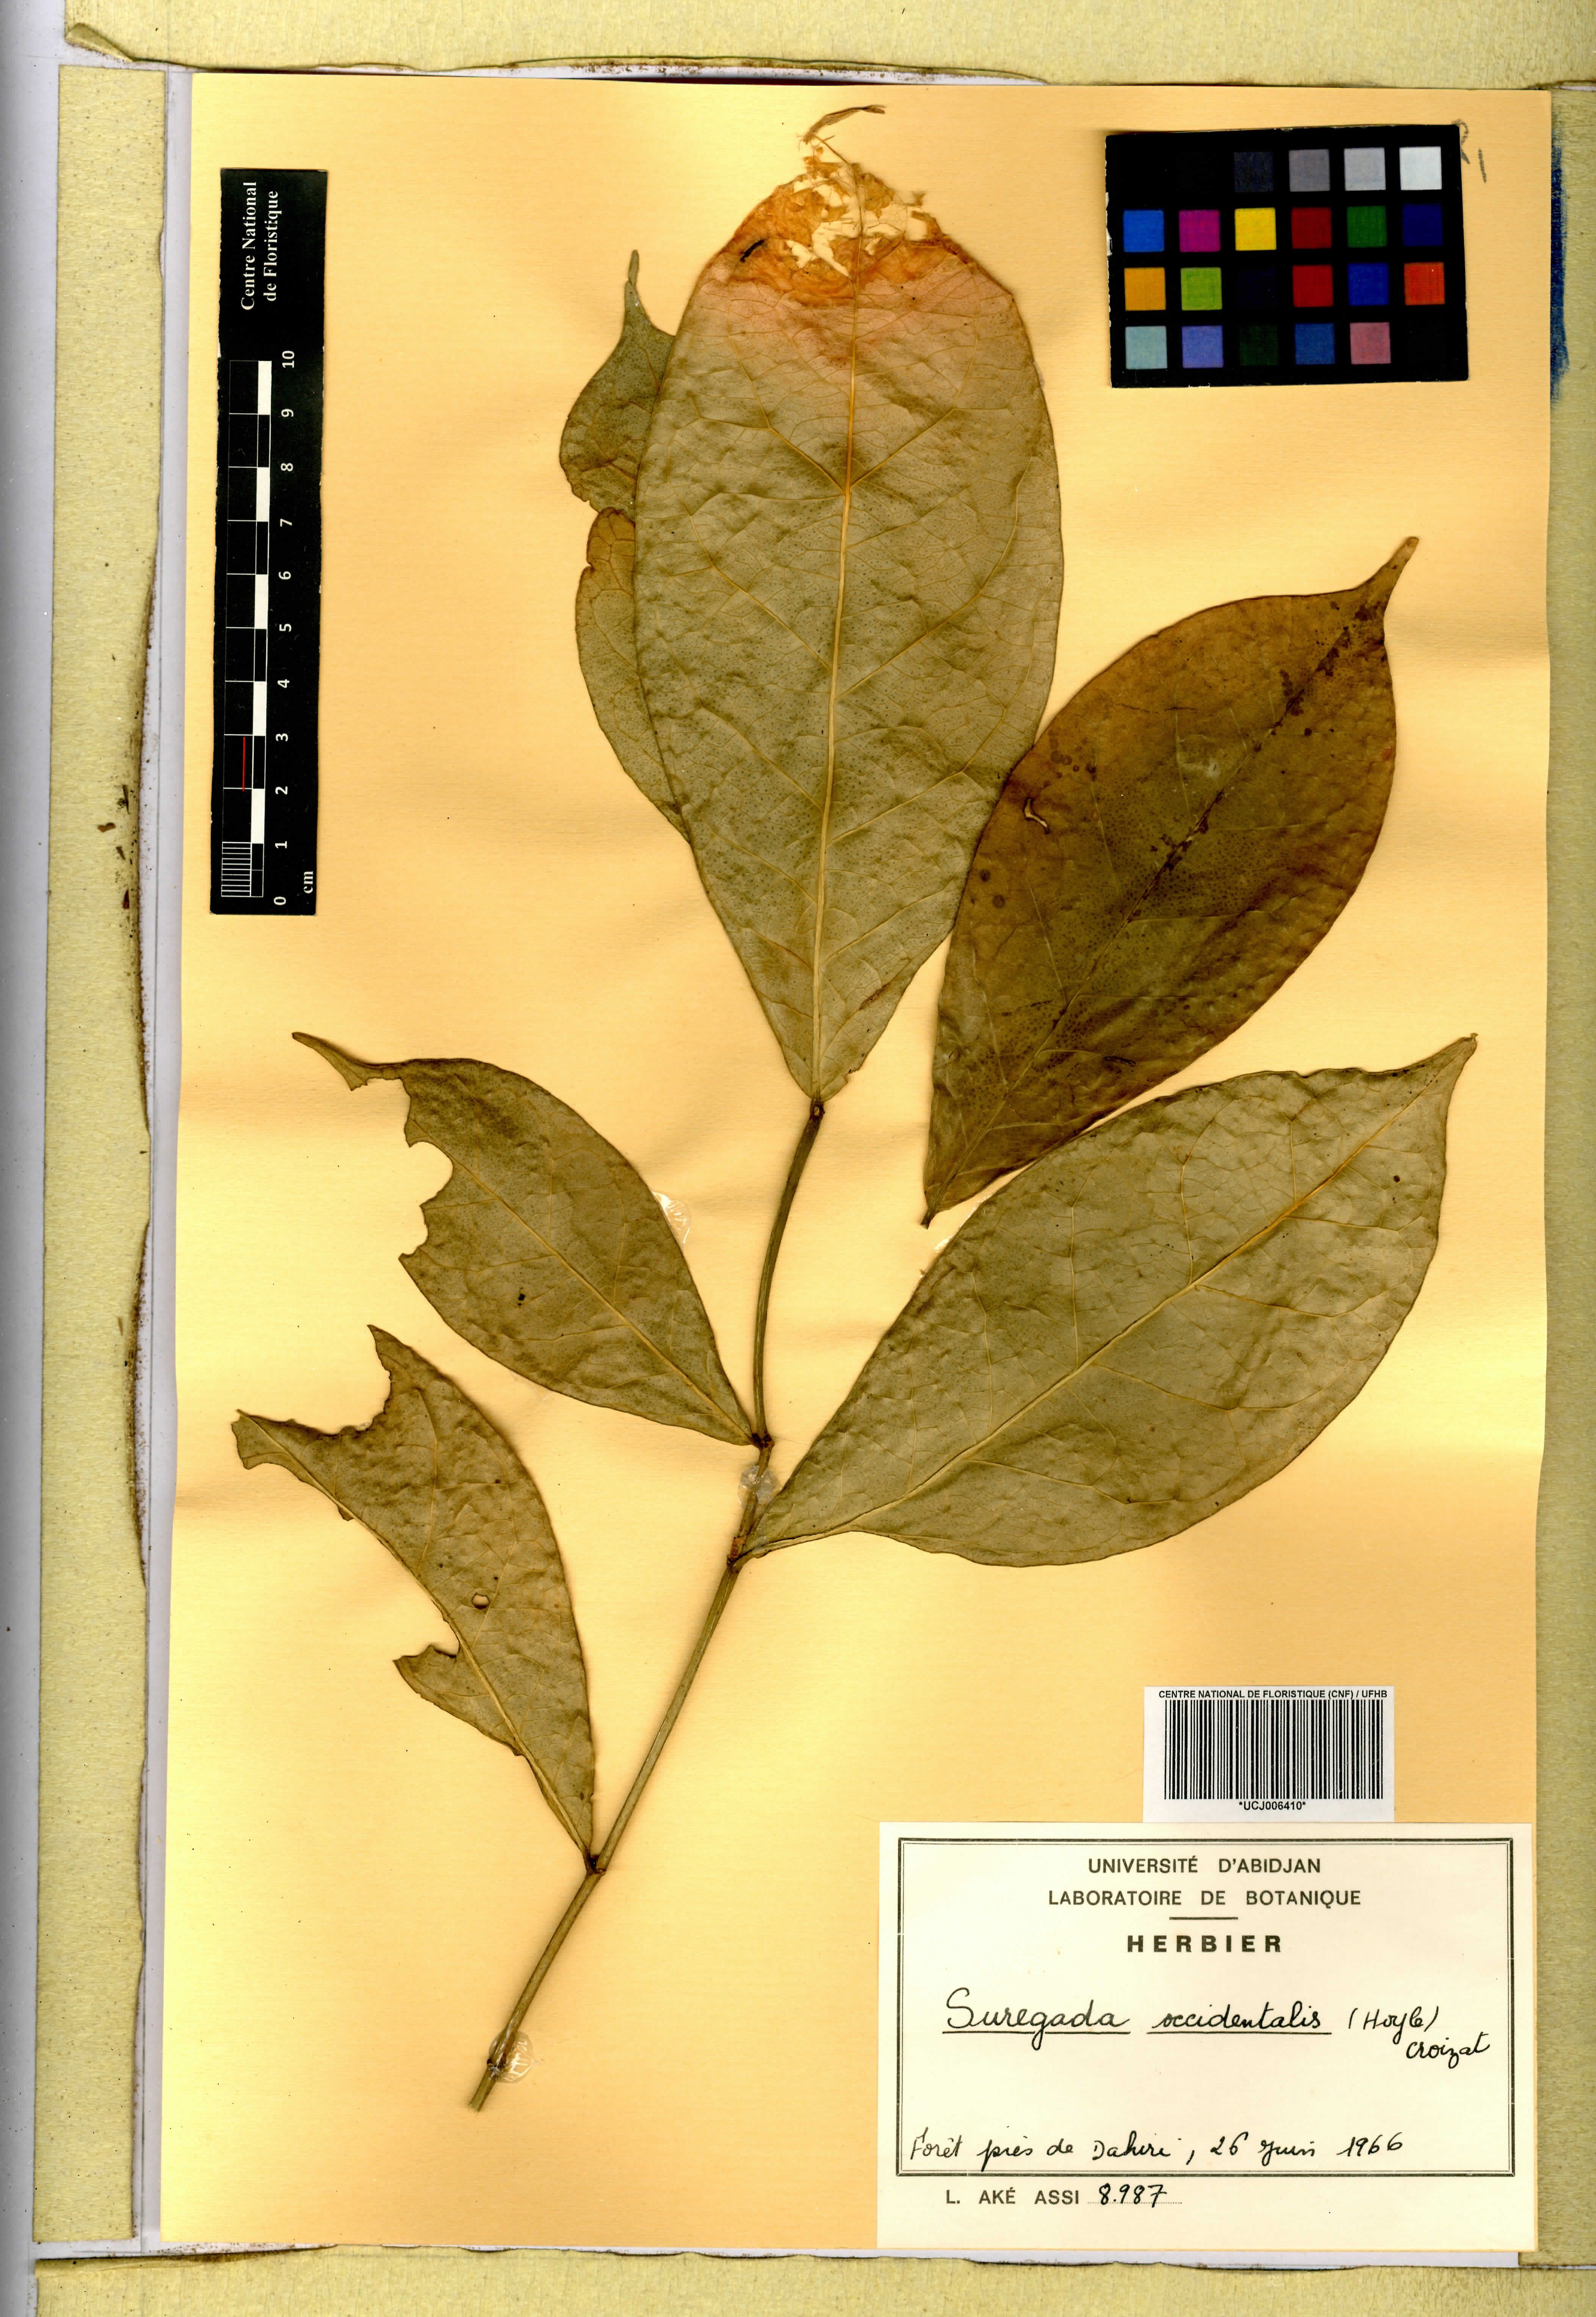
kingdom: Plantae
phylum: Tracheophyta
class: Magnoliopsida
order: Malpighiales
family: Euphorbiaceae
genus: Suregada
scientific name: Suregada occidentalis
